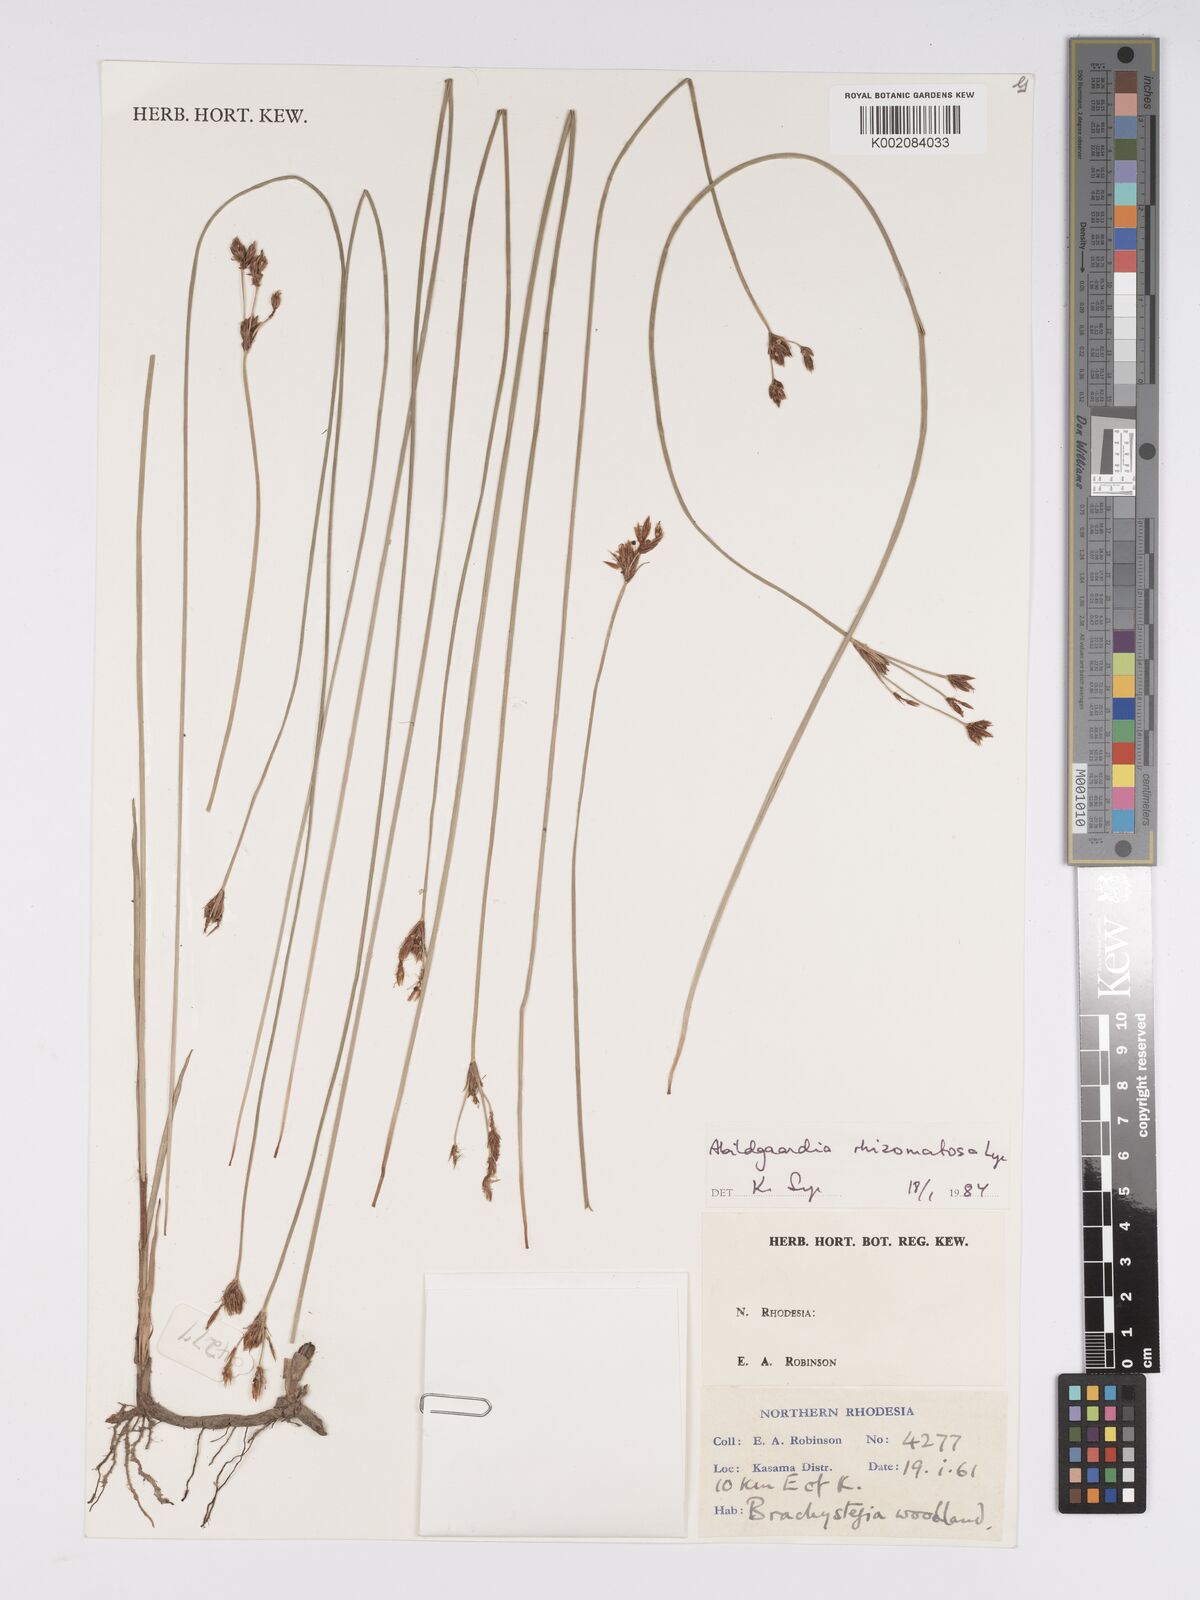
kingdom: Plantae
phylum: Tracheophyta
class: Liliopsida
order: Poales
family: Cyperaceae
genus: Bulbostylis
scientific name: Bulbostylis rhizomatosa
